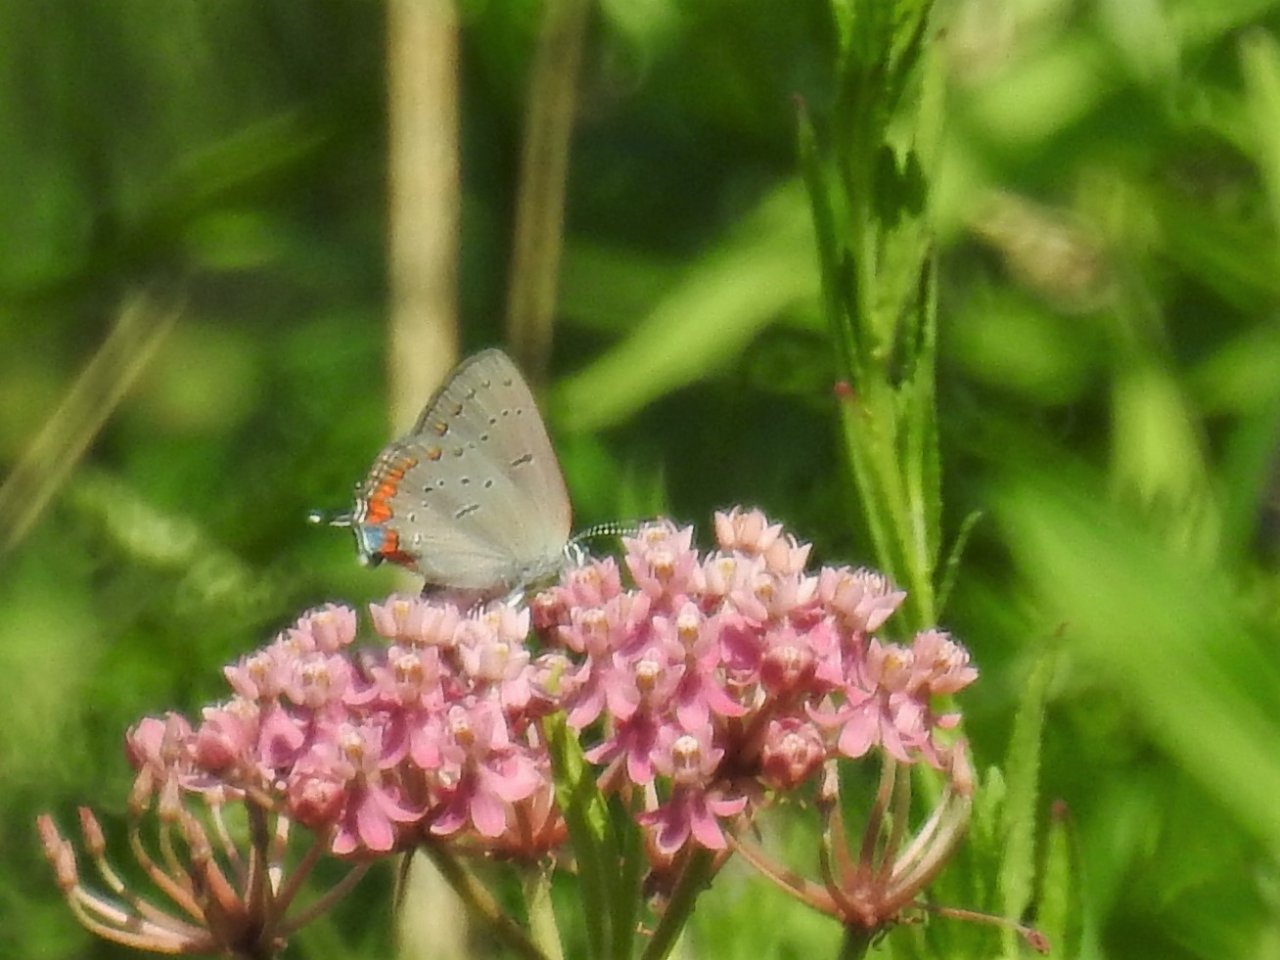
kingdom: Animalia
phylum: Arthropoda
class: Insecta
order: Lepidoptera
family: Lycaenidae
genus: Strymon
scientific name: Strymon acadica
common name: Acadian Hairstreak
